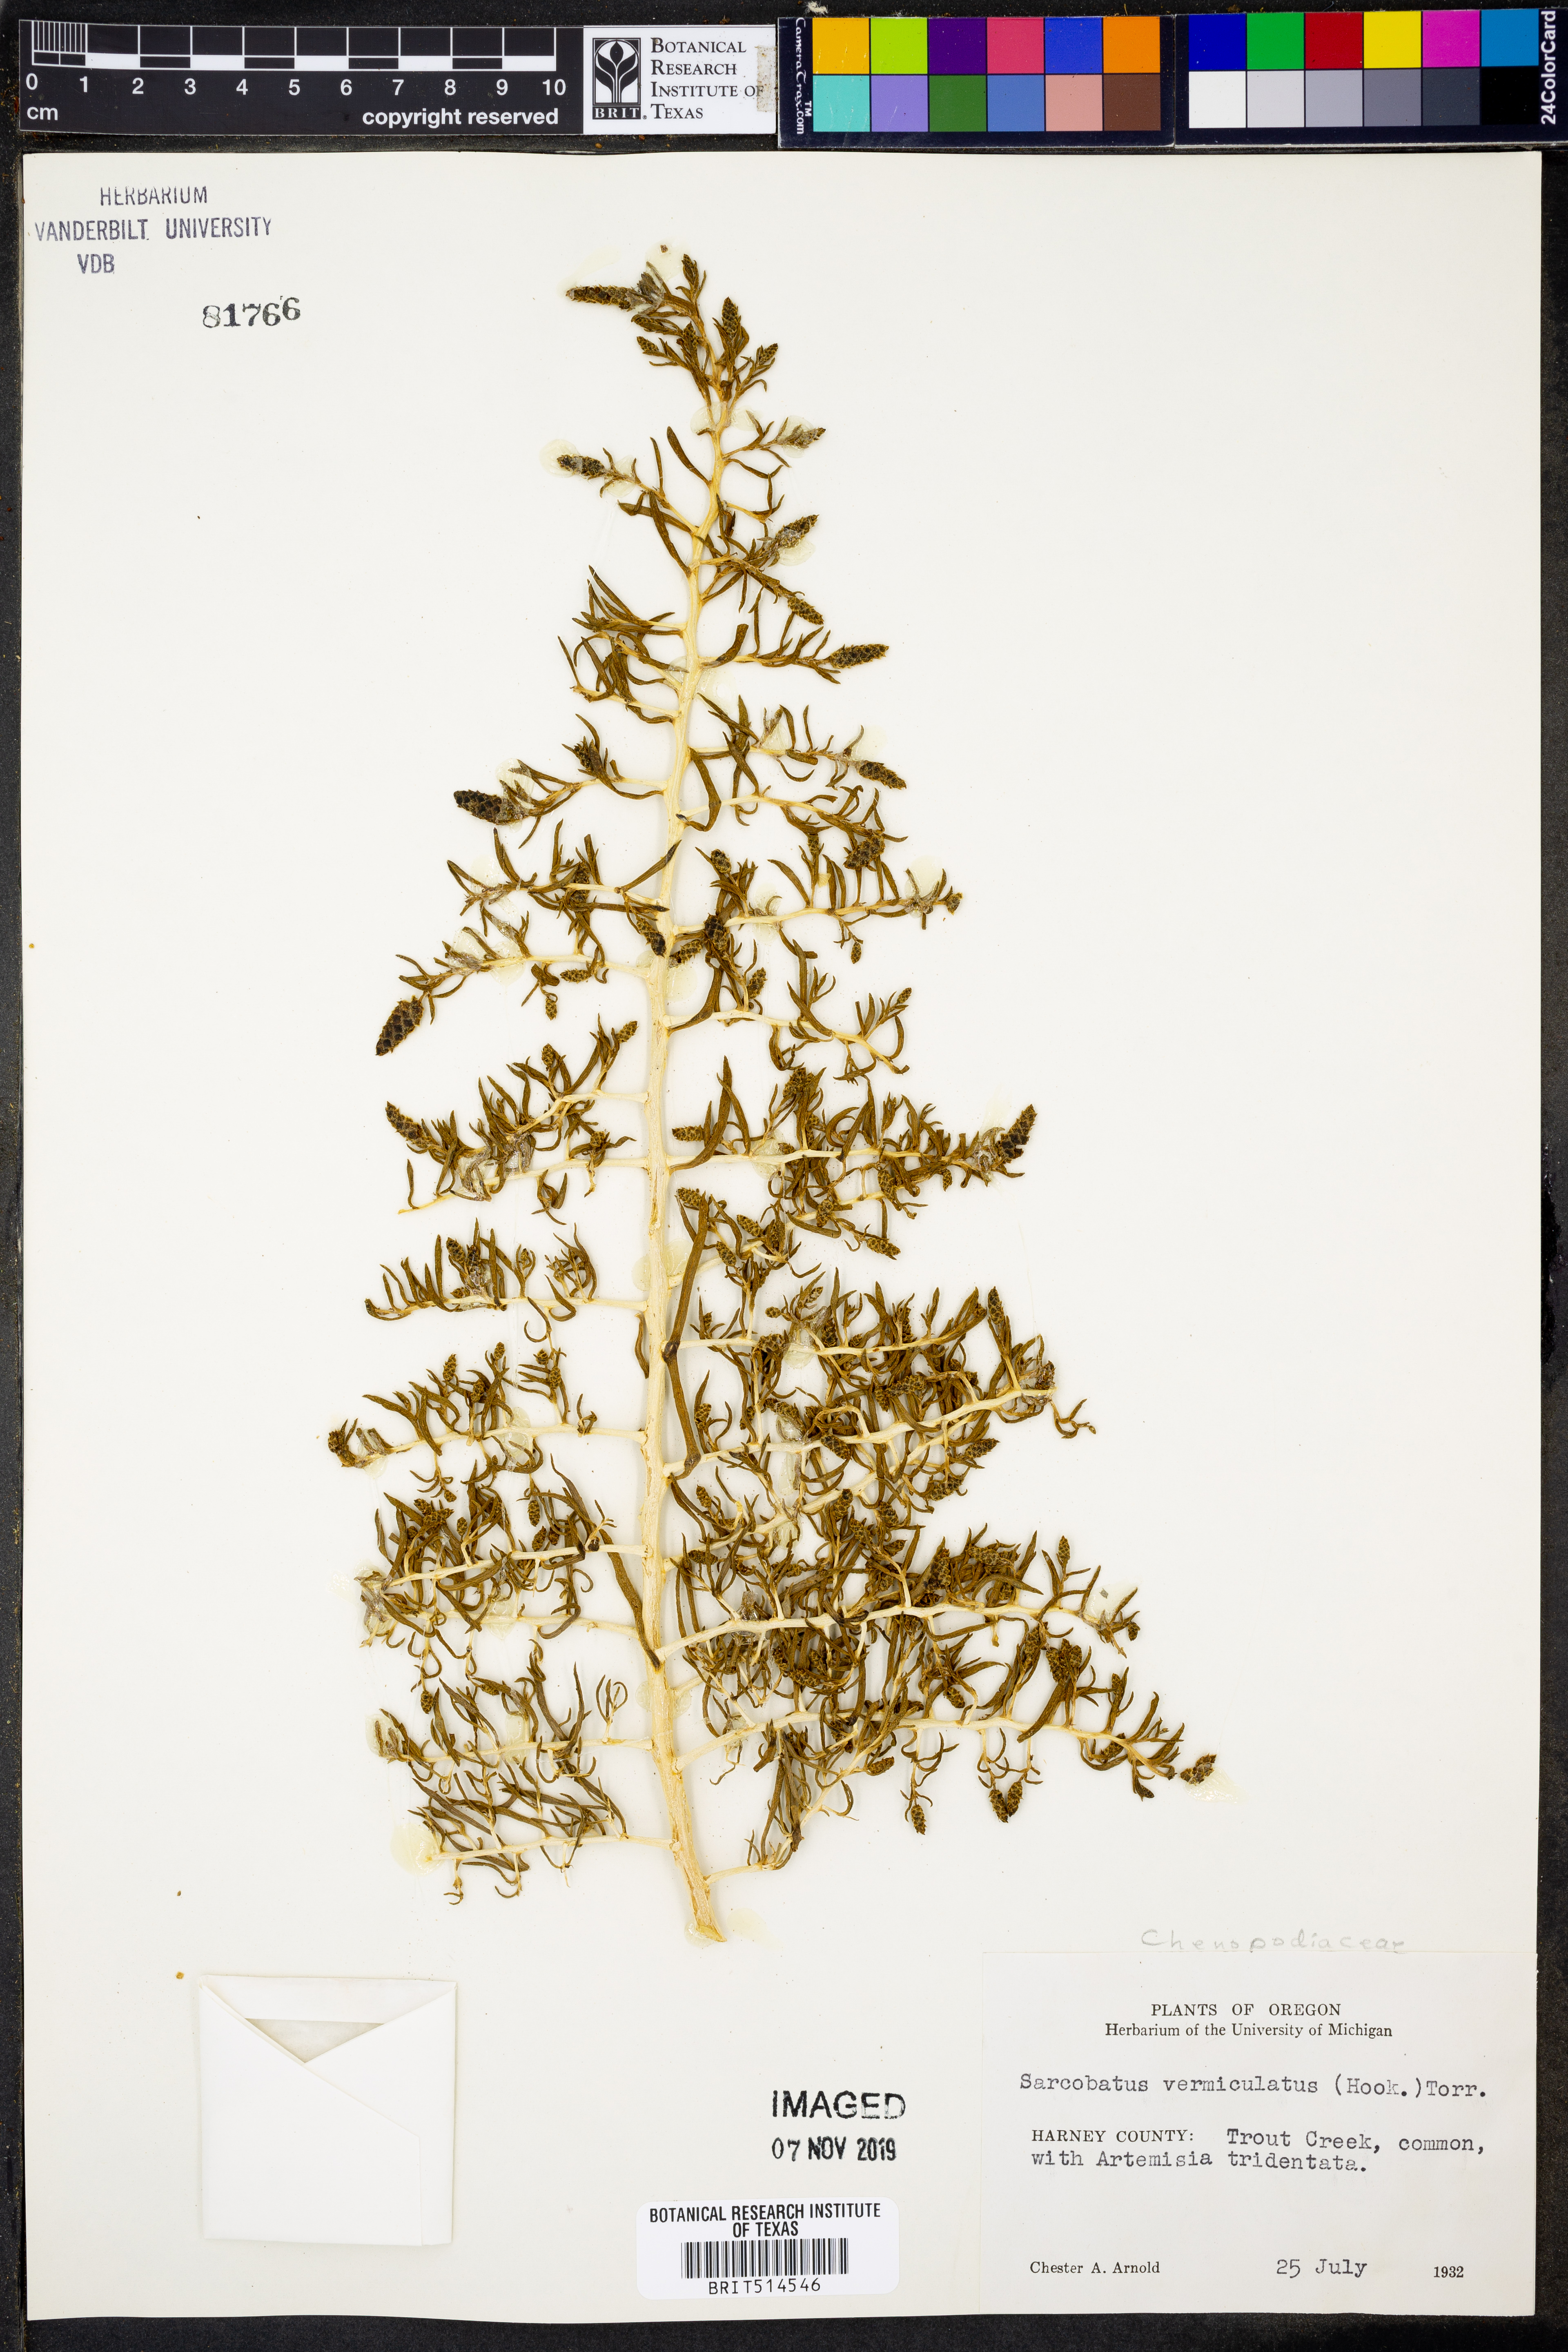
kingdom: Plantae
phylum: Tracheophyta
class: Magnoliopsida
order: Caryophyllales
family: Sarcobataceae
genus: Sarcobatus
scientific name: Sarcobatus vermiculatus
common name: Greasewood
